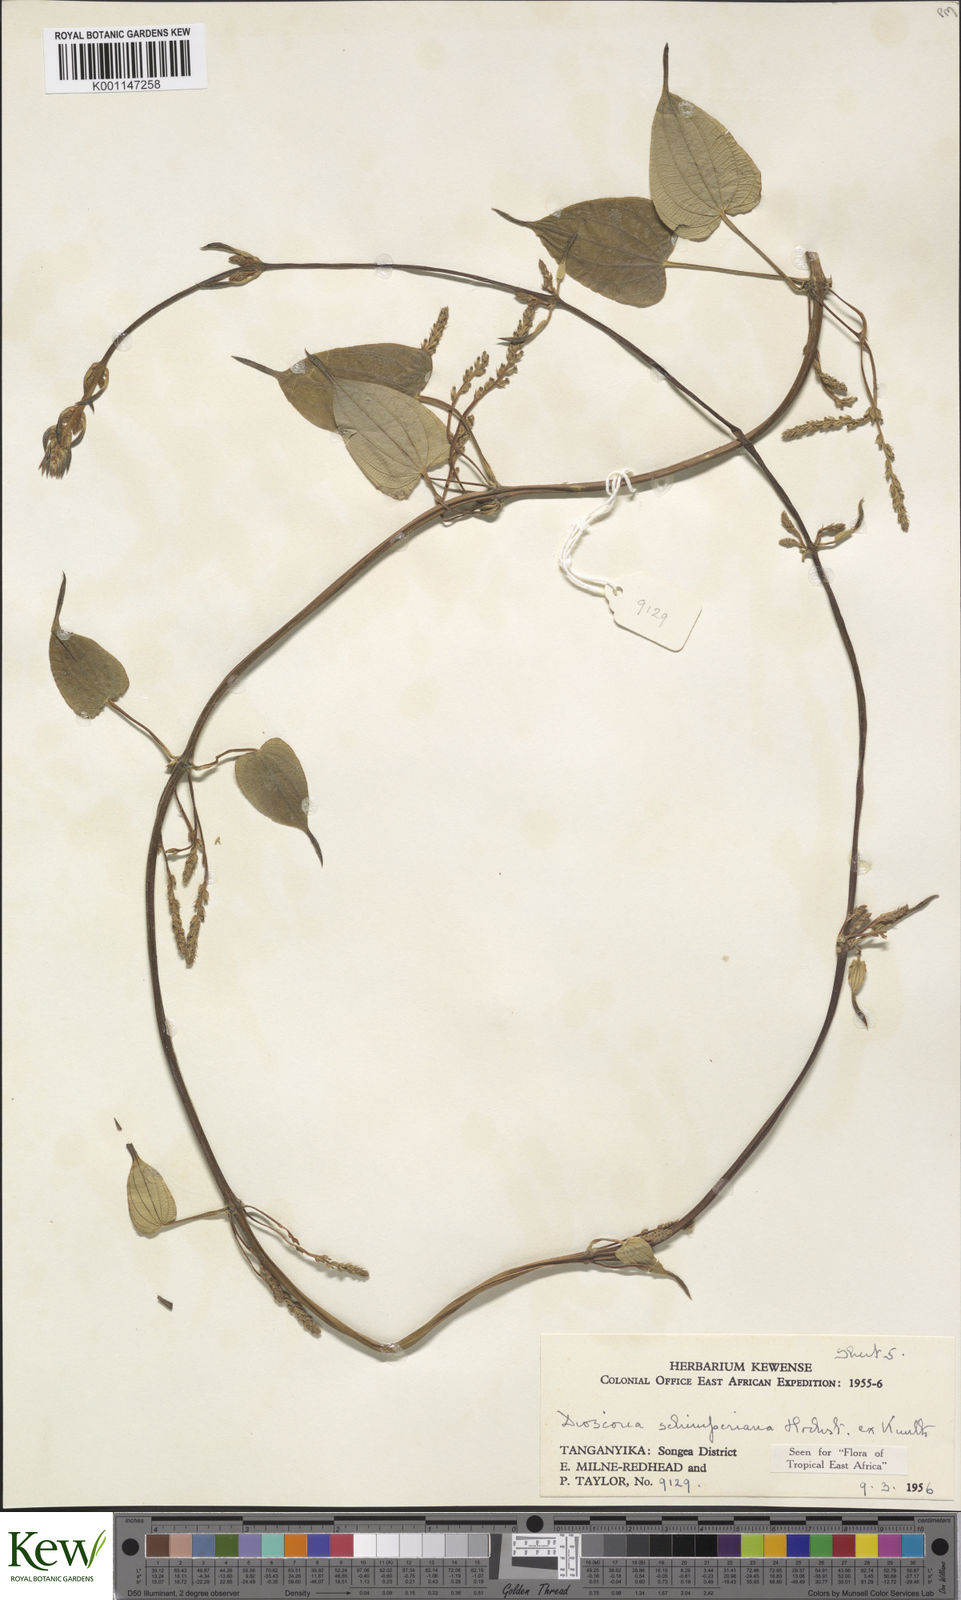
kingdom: Plantae
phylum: Tracheophyta
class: Liliopsida
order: Dioscoreales
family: Dioscoreaceae
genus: Dioscorea
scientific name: Dioscorea schimperiana
